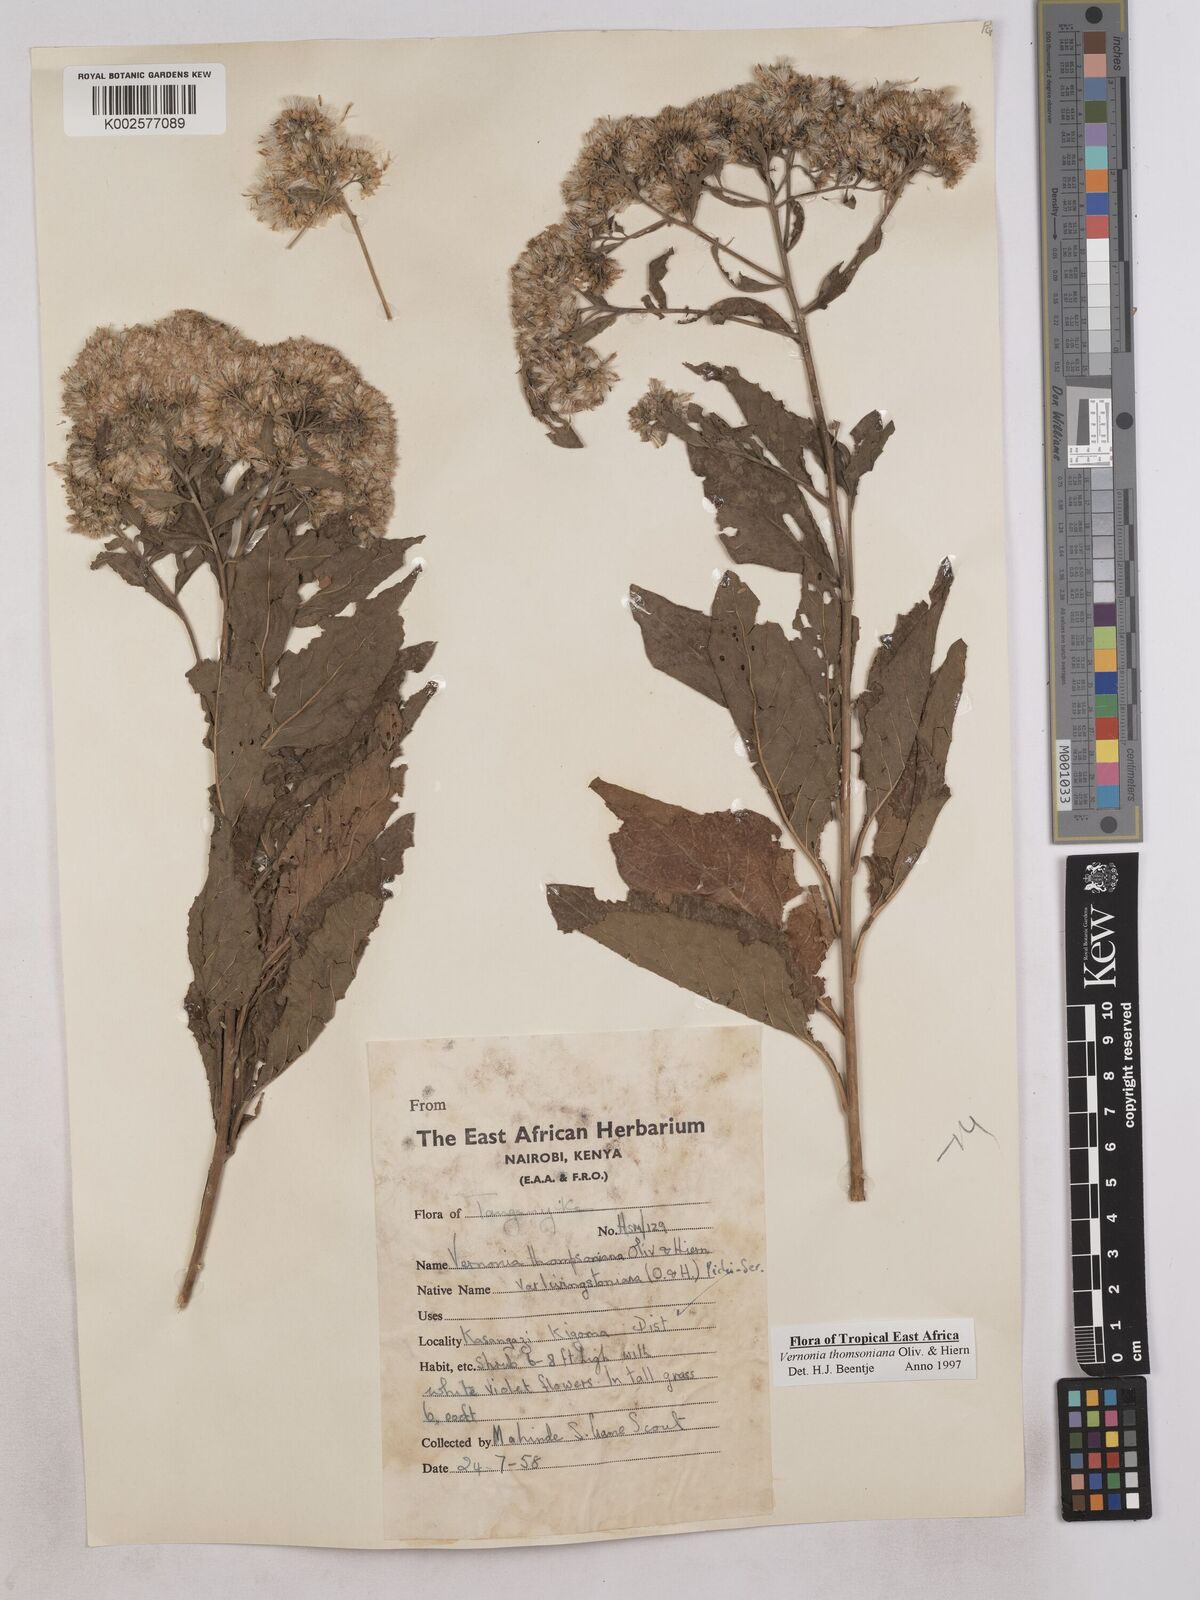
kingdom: Plantae
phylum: Tracheophyta
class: Magnoliopsida
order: Asterales
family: Asteraceae
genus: Gymnanthemum
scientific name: Gymnanthemum thomsonianum
